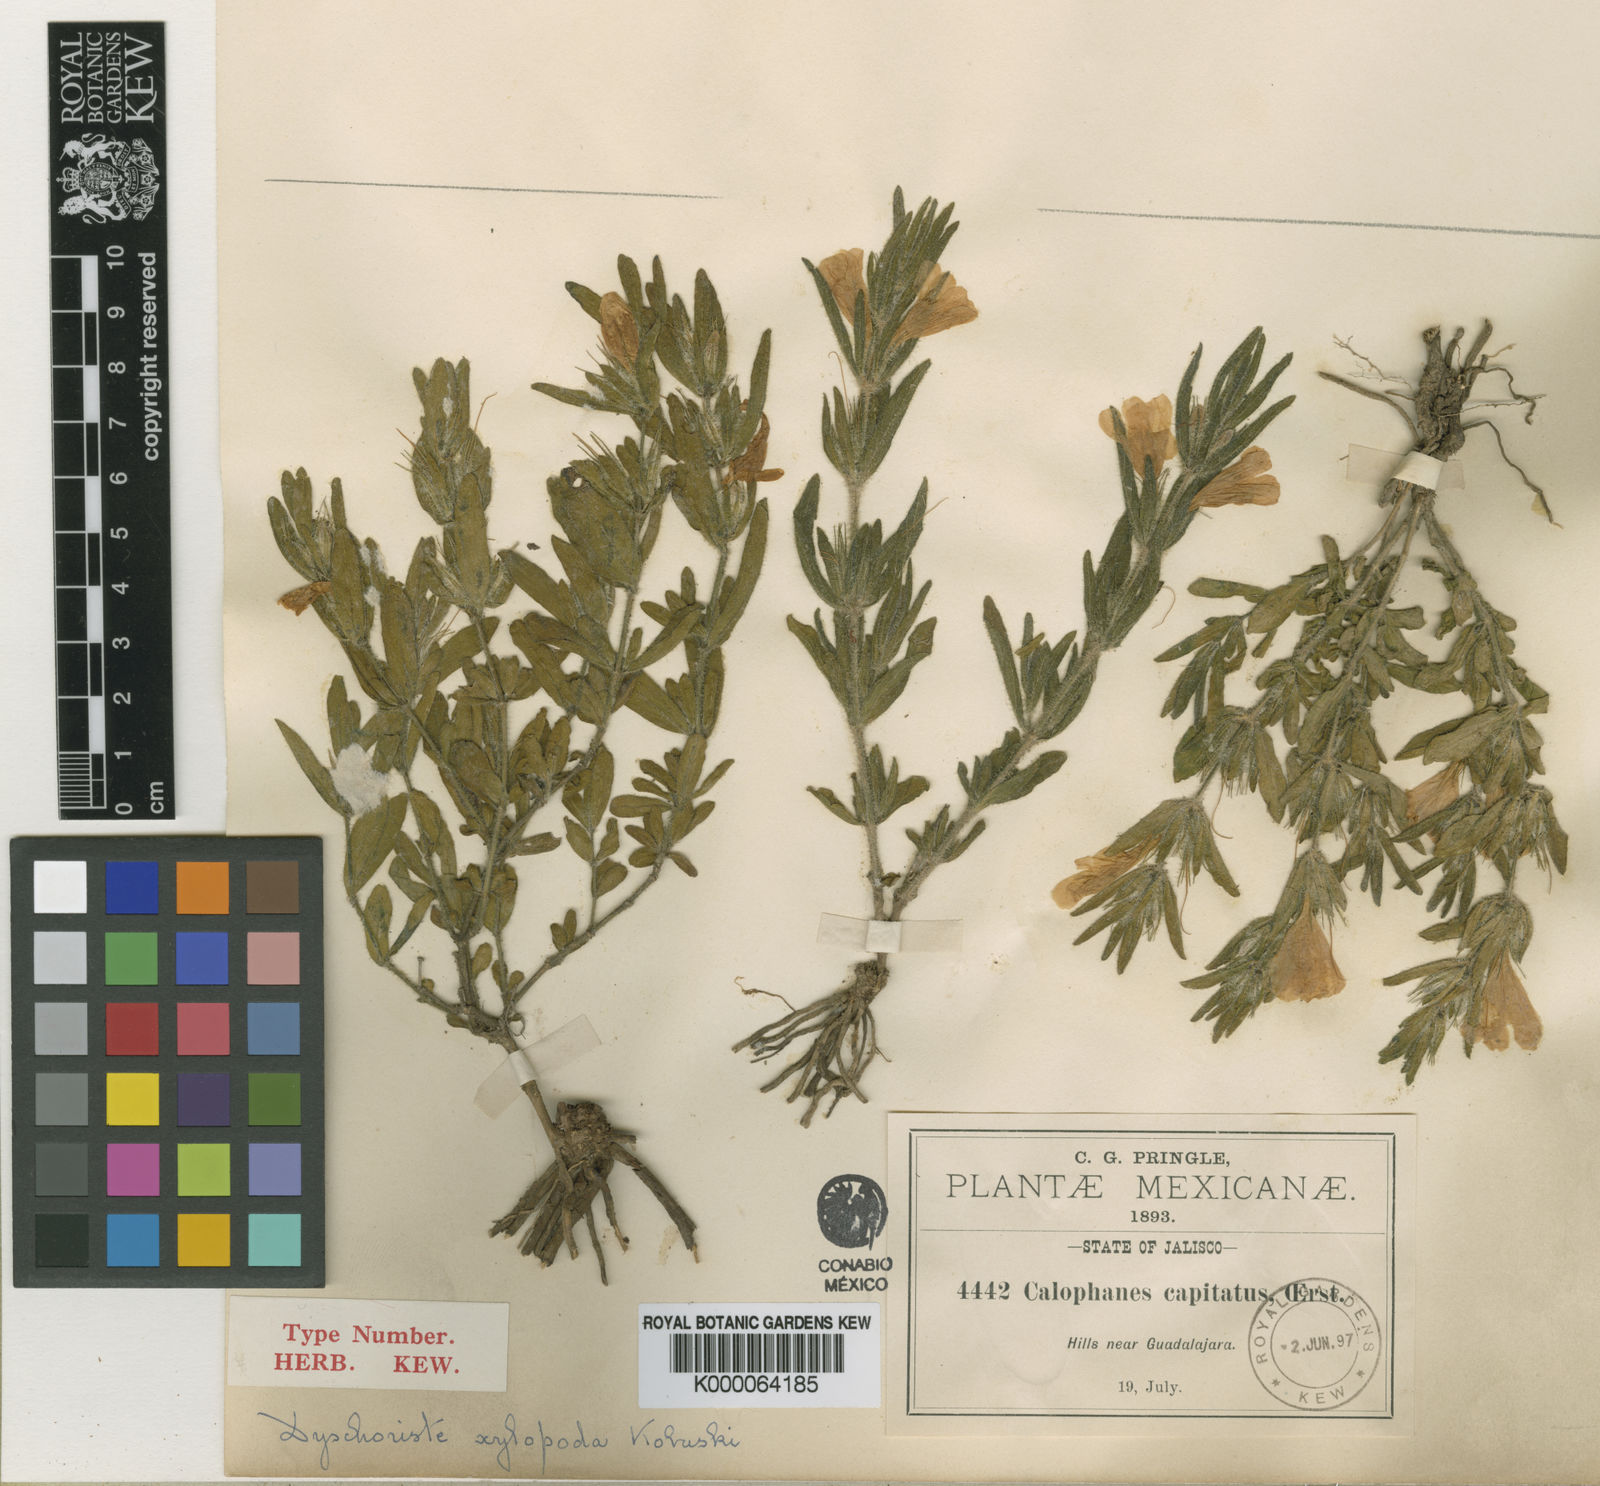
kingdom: Plantae
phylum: Tracheophyta
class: Magnoliopsida
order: Lamiales
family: Acanthaceae
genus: Dyschoriste
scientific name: Dyschoriste xylopoda
